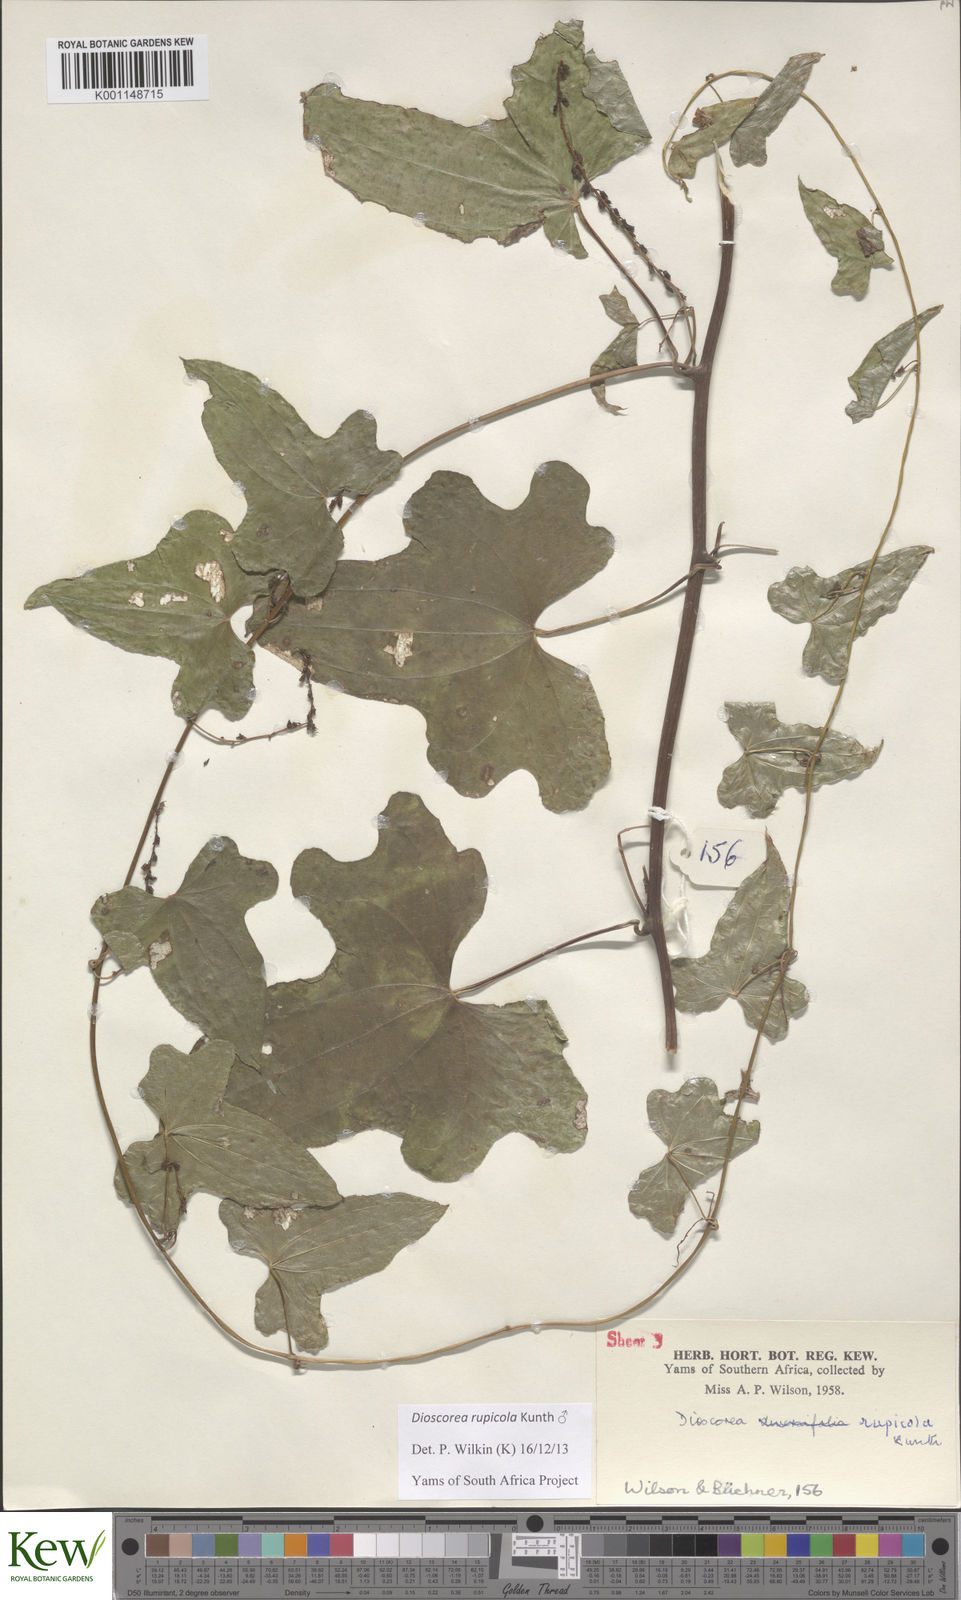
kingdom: Plantae
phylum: Tracheophyta
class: Liliopsida
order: Dioscoreales
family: Dioscoreaceae
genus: Dioscorea
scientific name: Dioscorea rupicola
